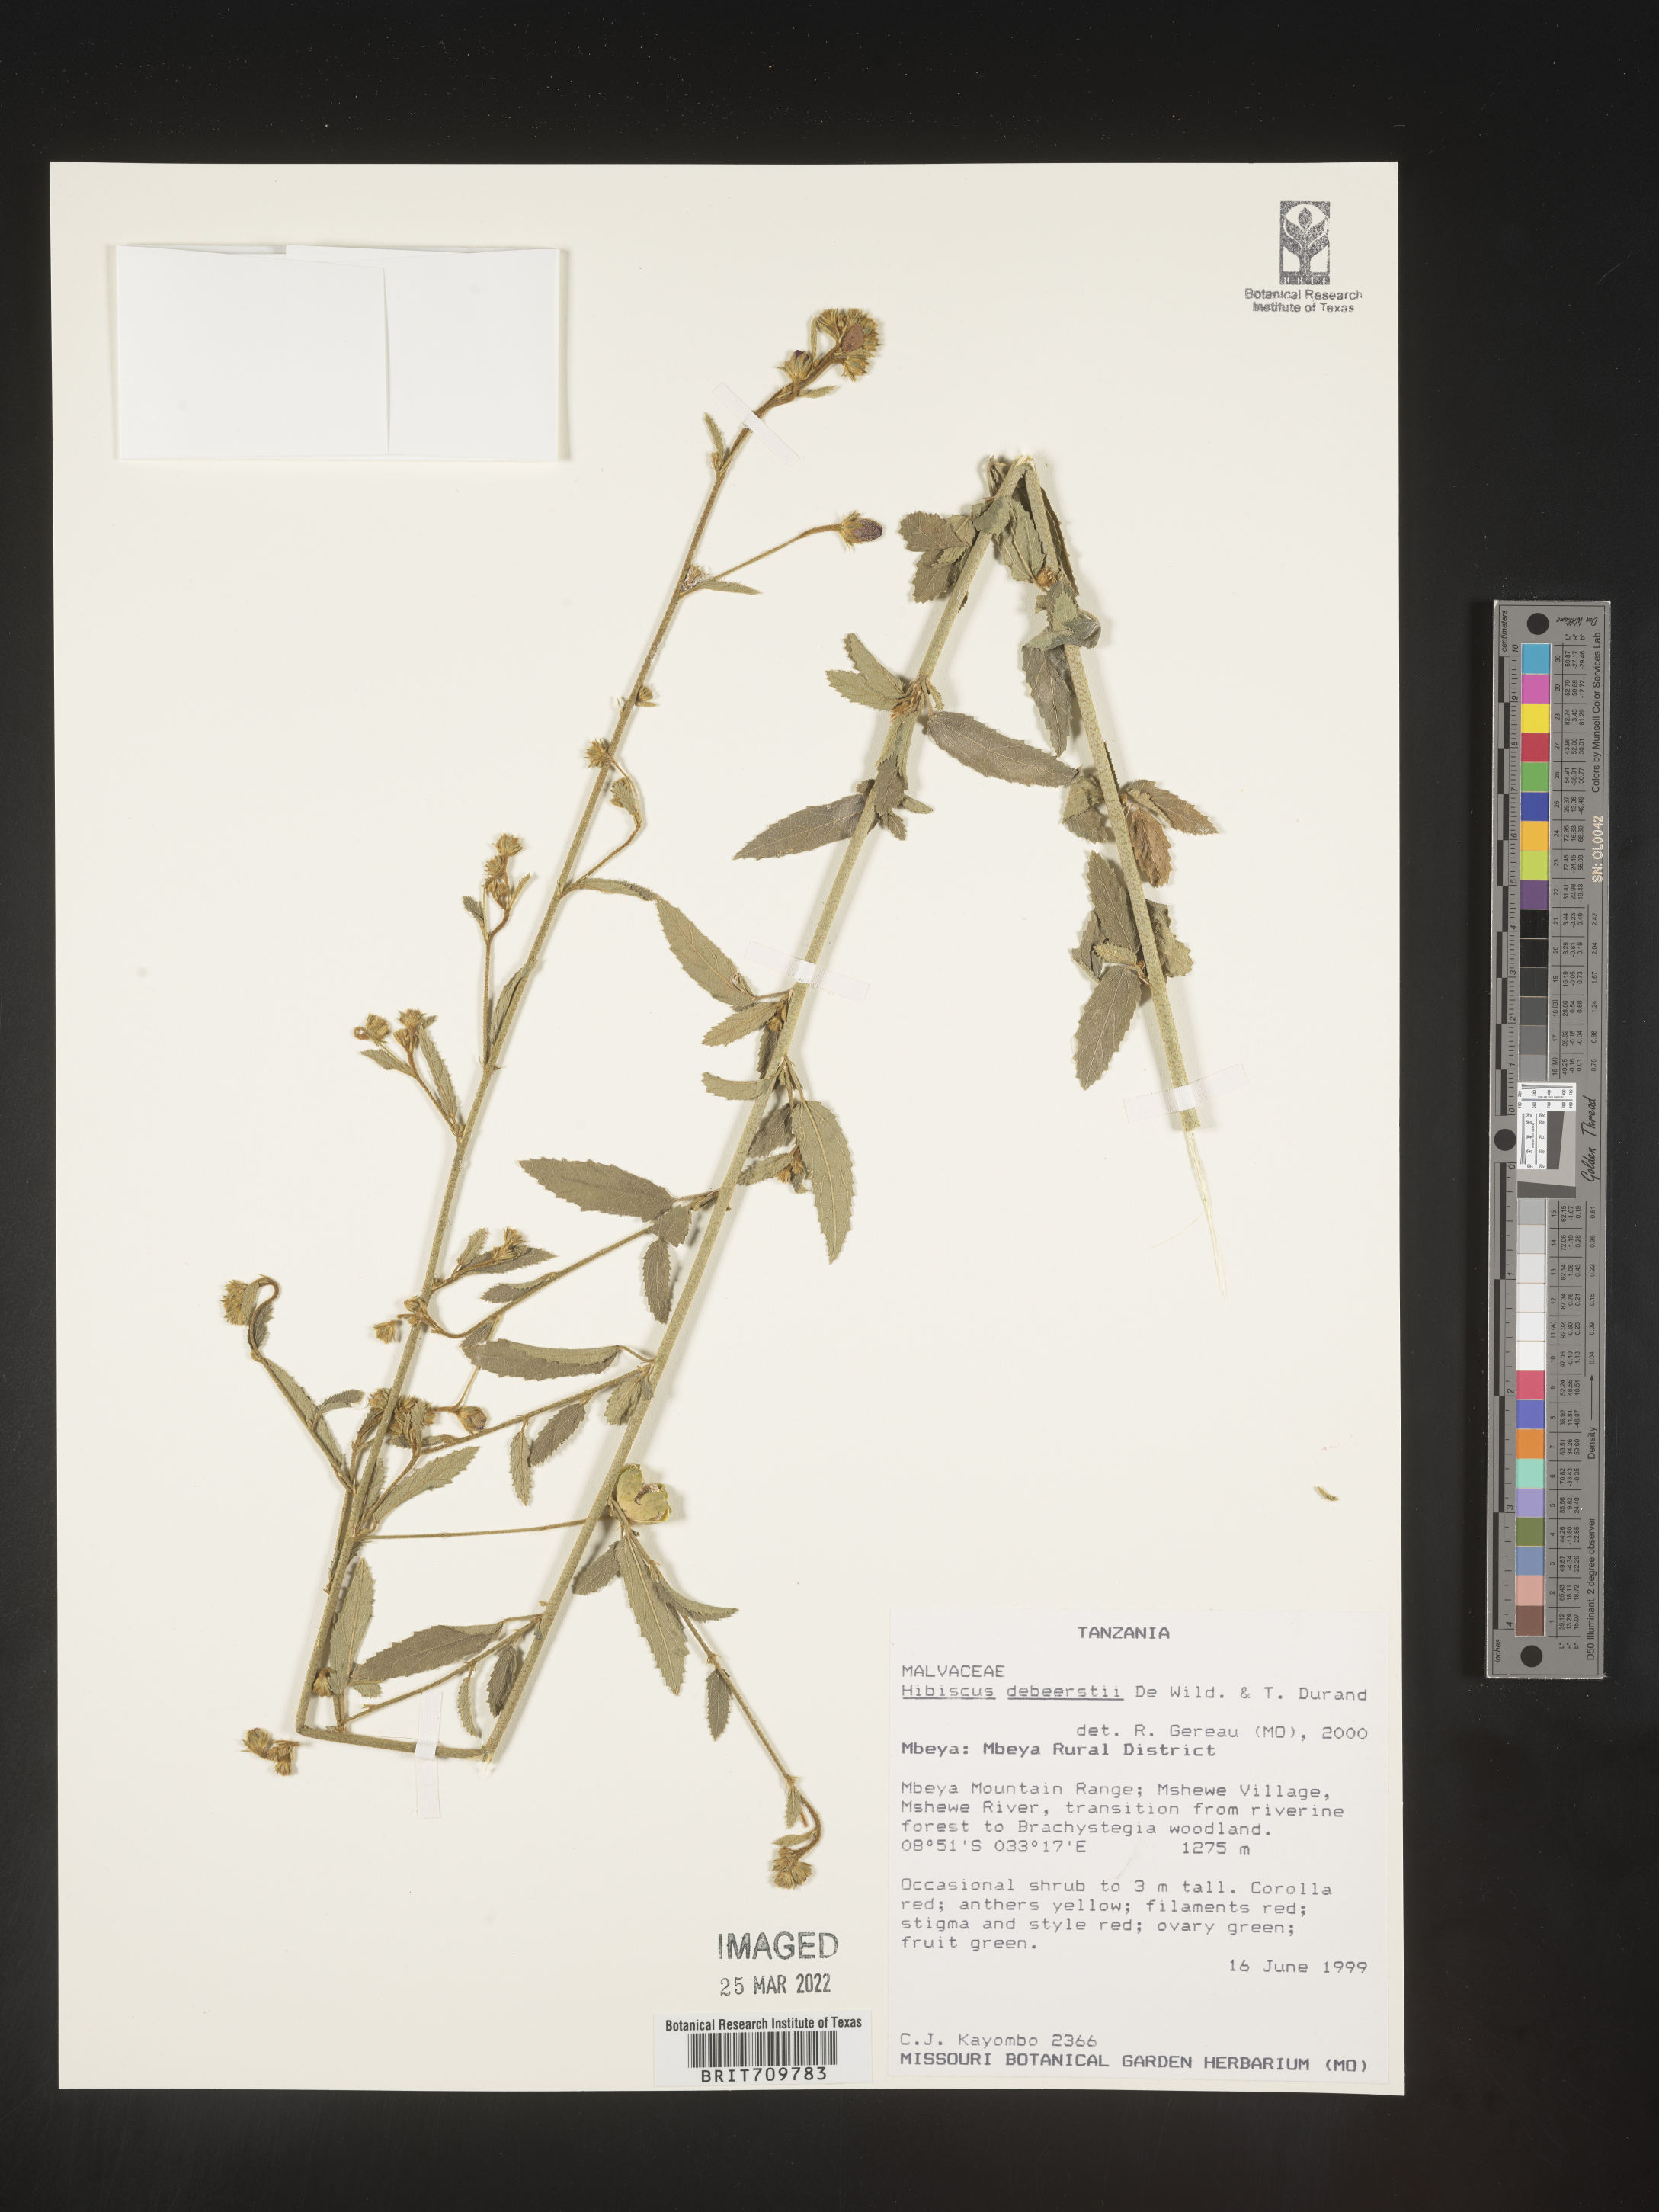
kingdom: Plantae
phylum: Tracheophyta
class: Magnoliopsida
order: Malvales
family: Malvaceae
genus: Hibiscus
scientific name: Hibiscus
